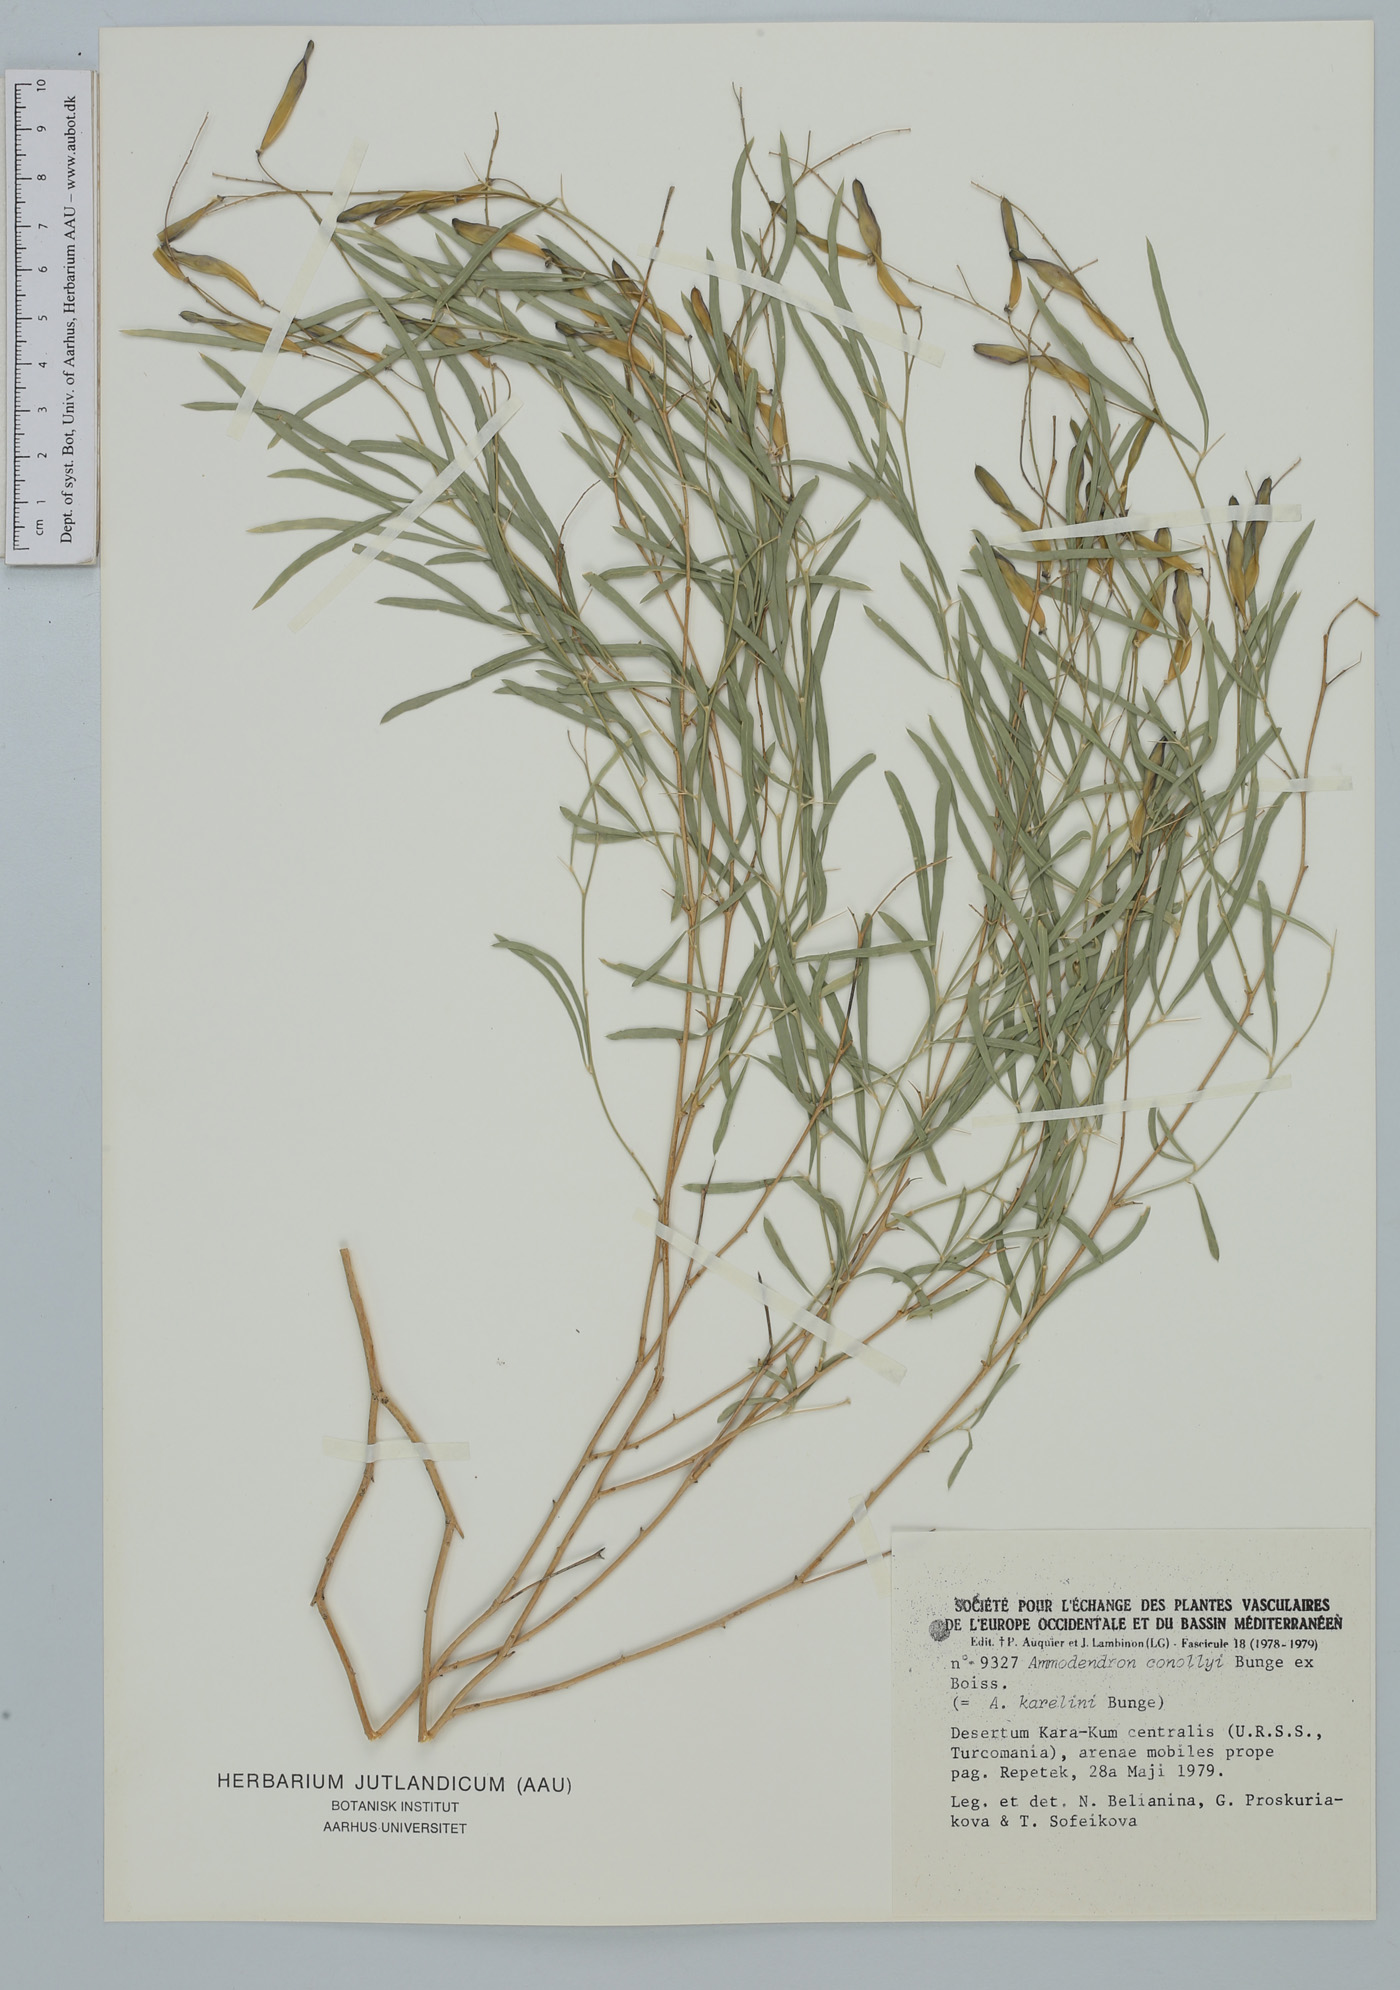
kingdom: Plantae
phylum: Tracheophyta
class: Magnoliopsida
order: Fabales
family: Fabaceae
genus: Ammodendron
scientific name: Ammodendron conollyi
